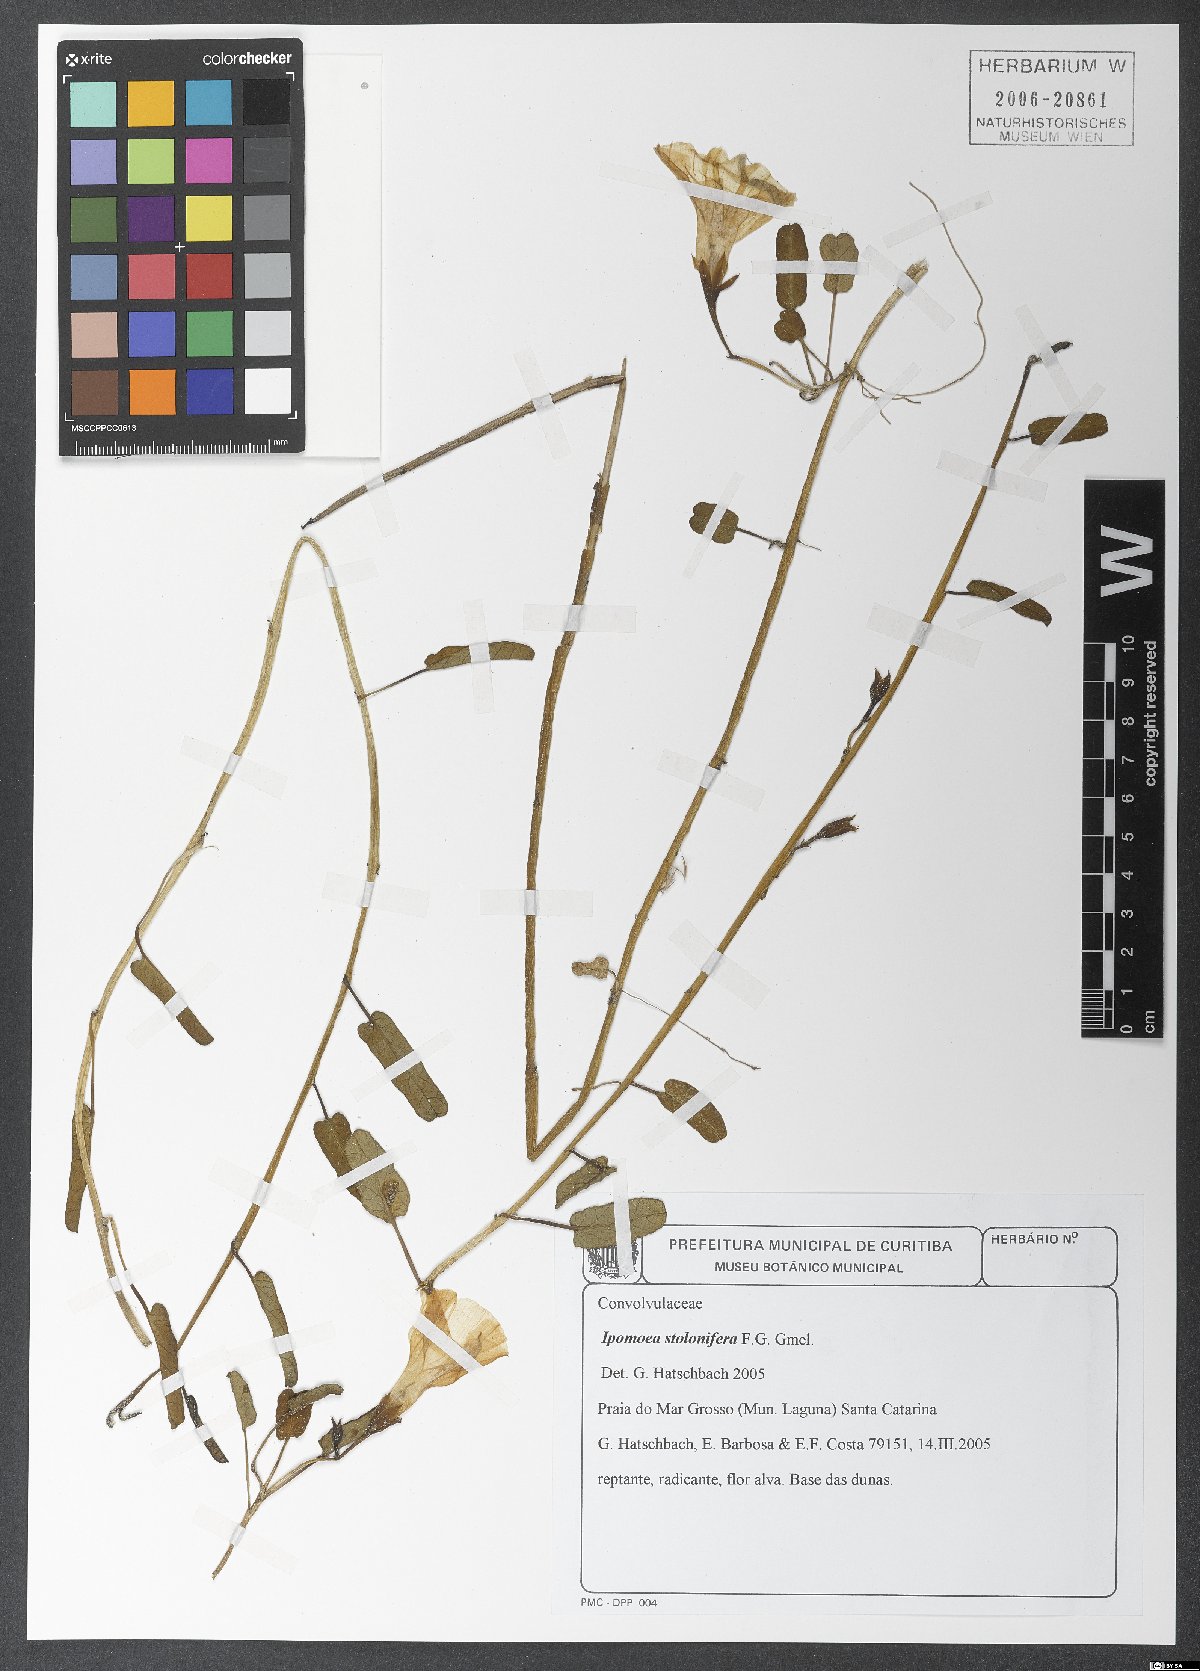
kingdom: Plantae
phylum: Tracheophyta
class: Magnoliopsida
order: Solanales
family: Convolvulaceae
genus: Ipomoea
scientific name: Ipomoea imperati
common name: Fiddle-leaf morning-glory
